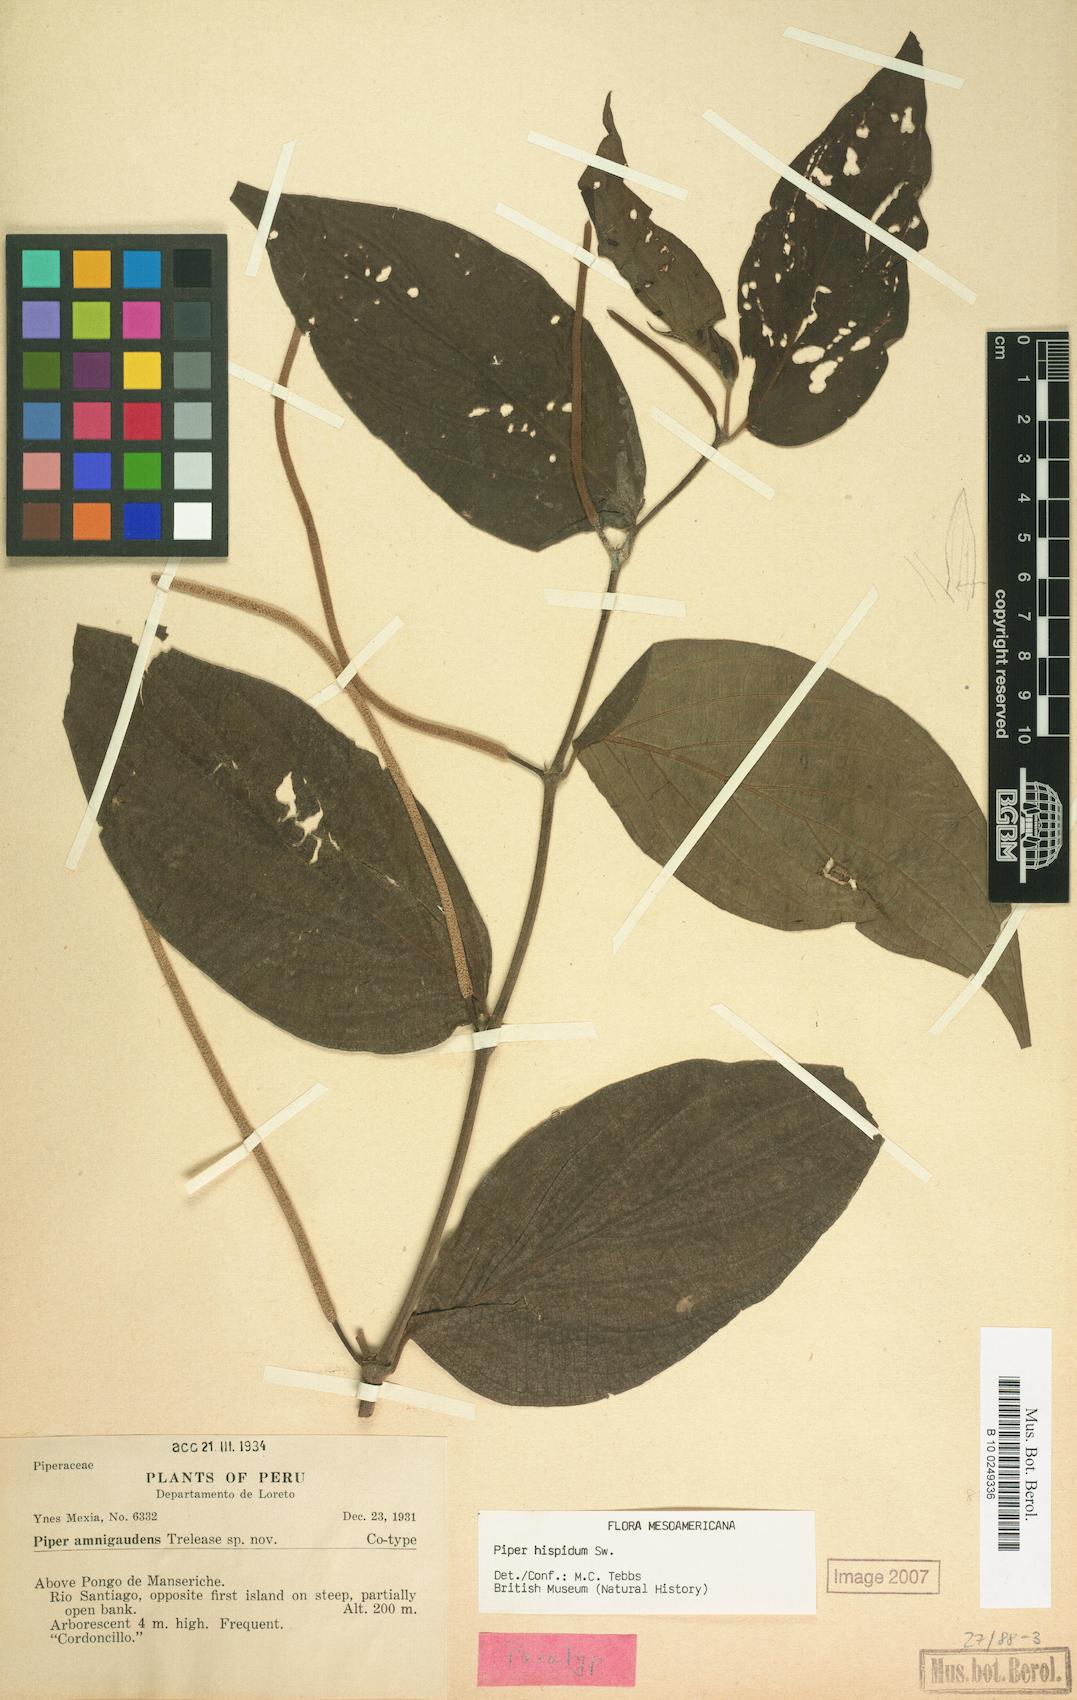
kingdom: Plantae
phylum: Tracheophyta
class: Magnoliopsida
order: Piperales
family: Piperaceae
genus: Piper
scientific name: Piper hispidum
